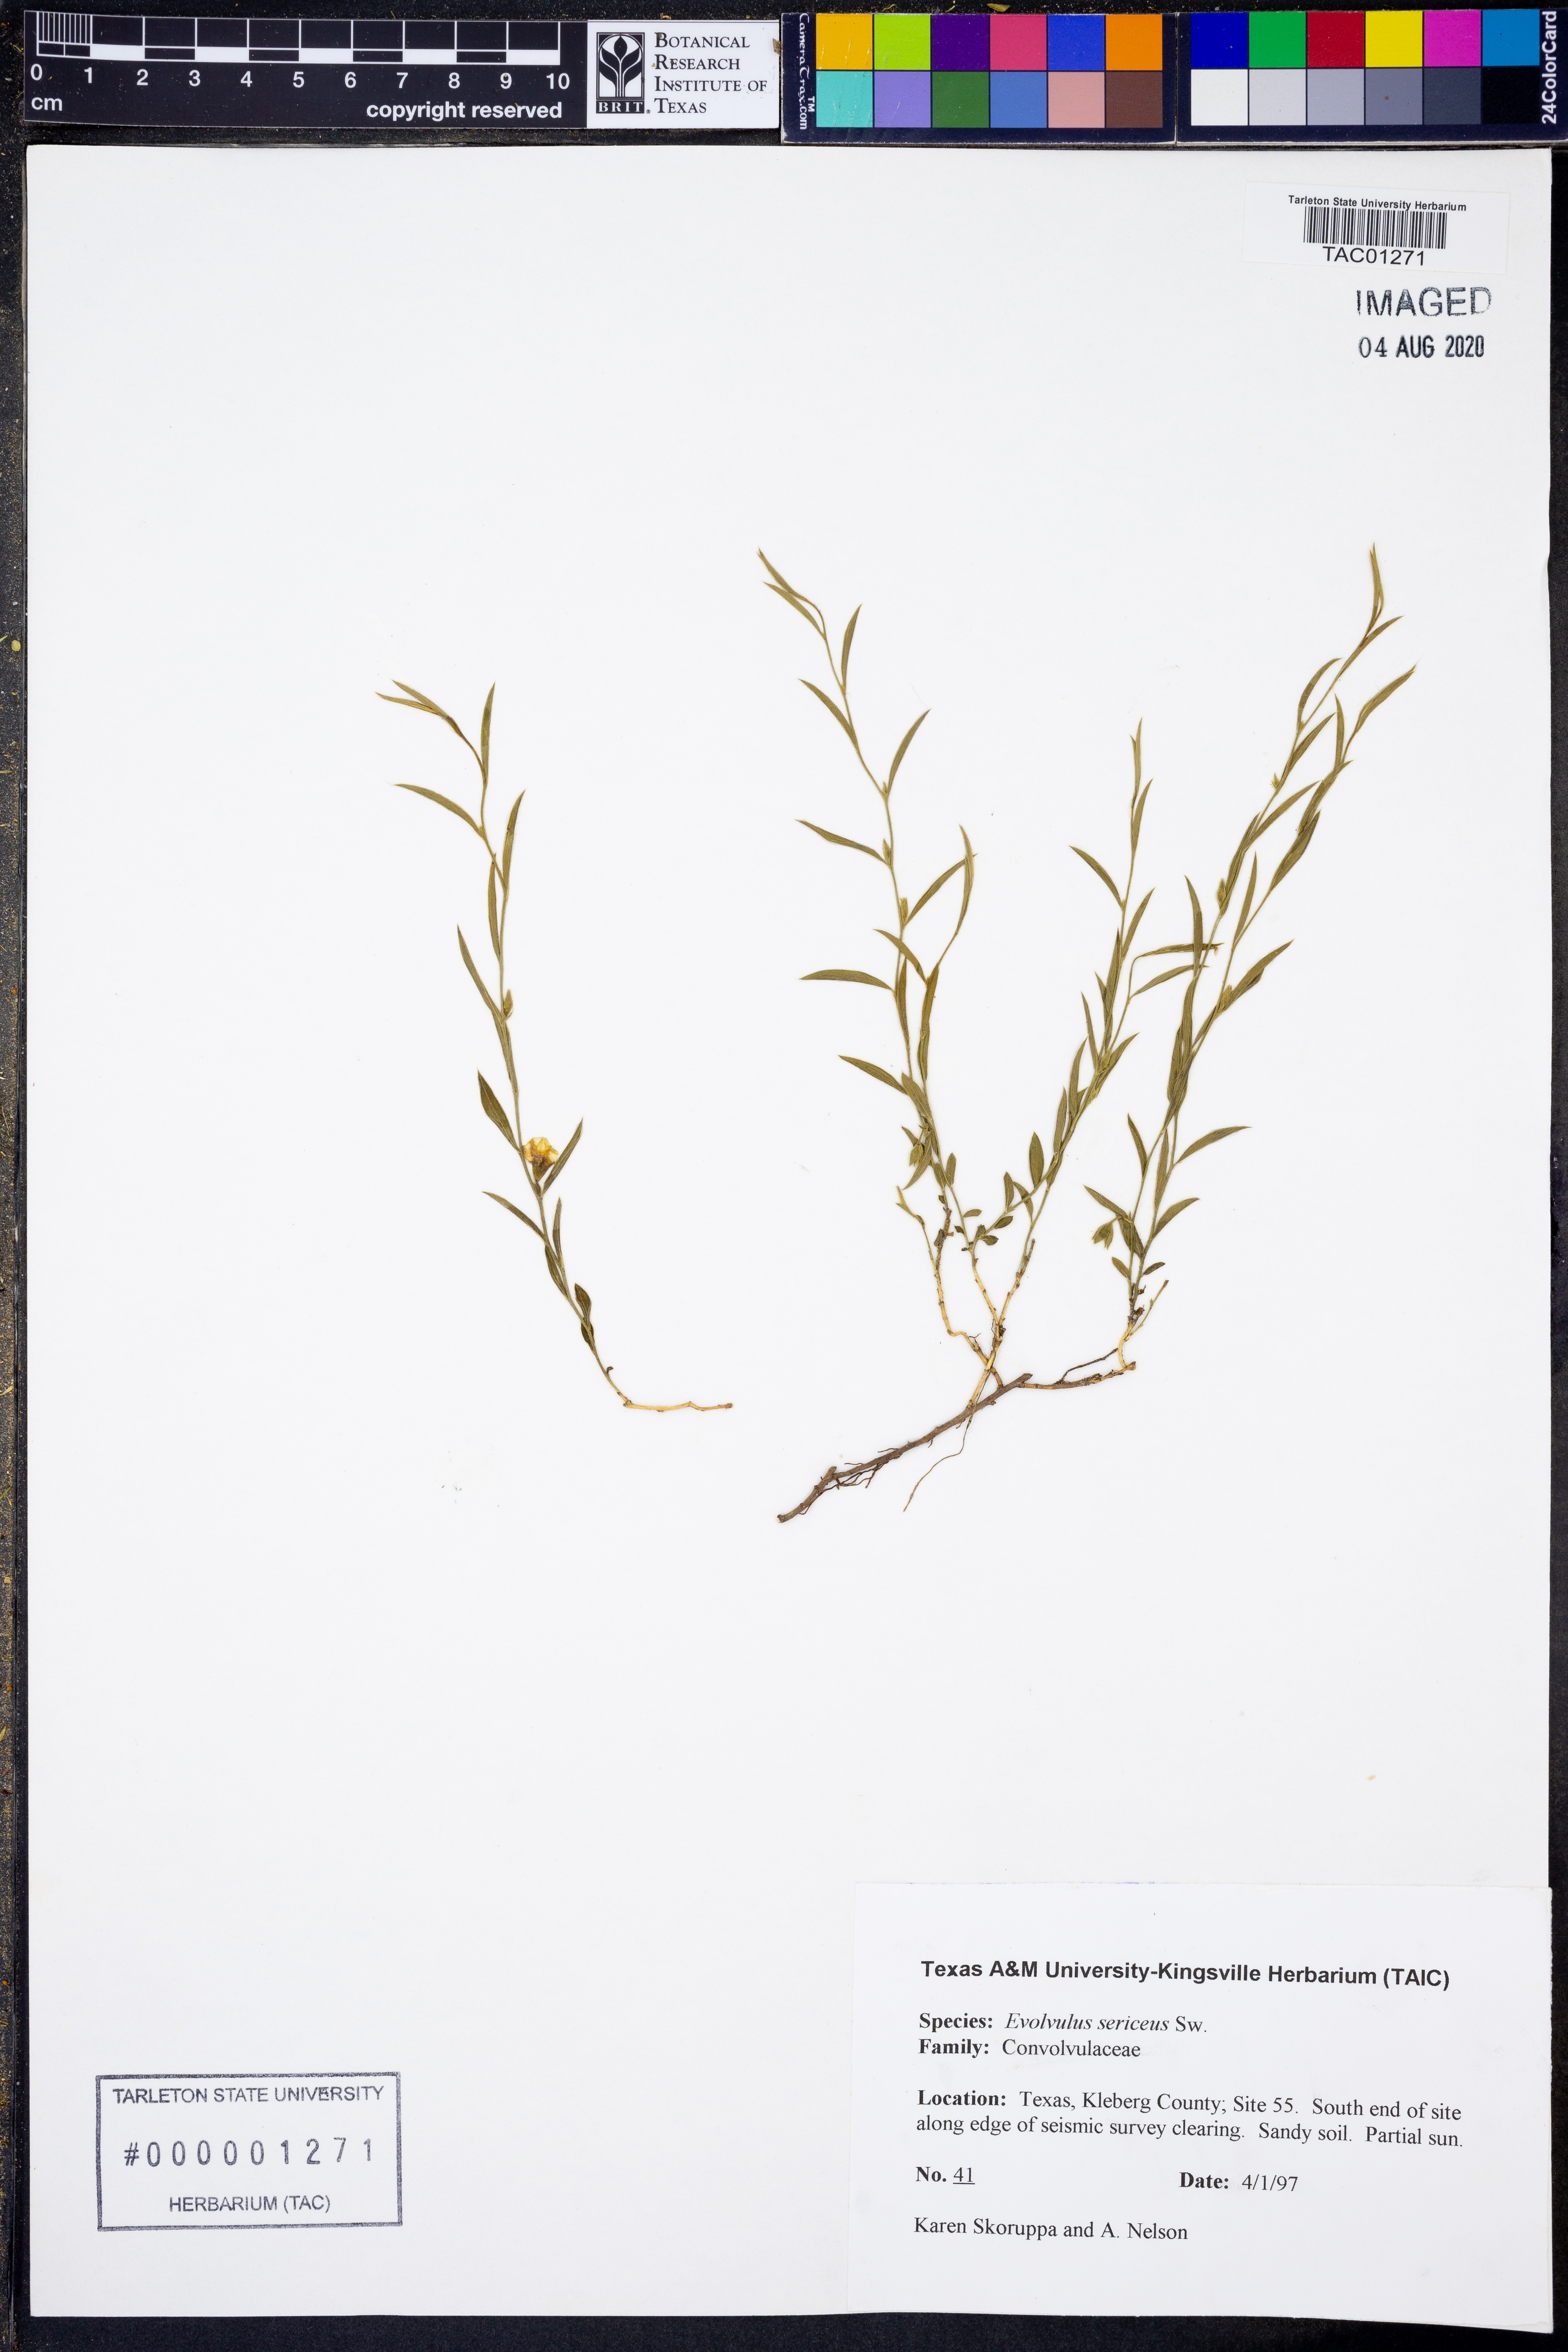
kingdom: Plantae
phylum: Tracheophyta
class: Magnoliopsida
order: Solanales
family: Convolvulaceae
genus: Evolvulus
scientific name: Evolvulus sericeus
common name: Blue dots
